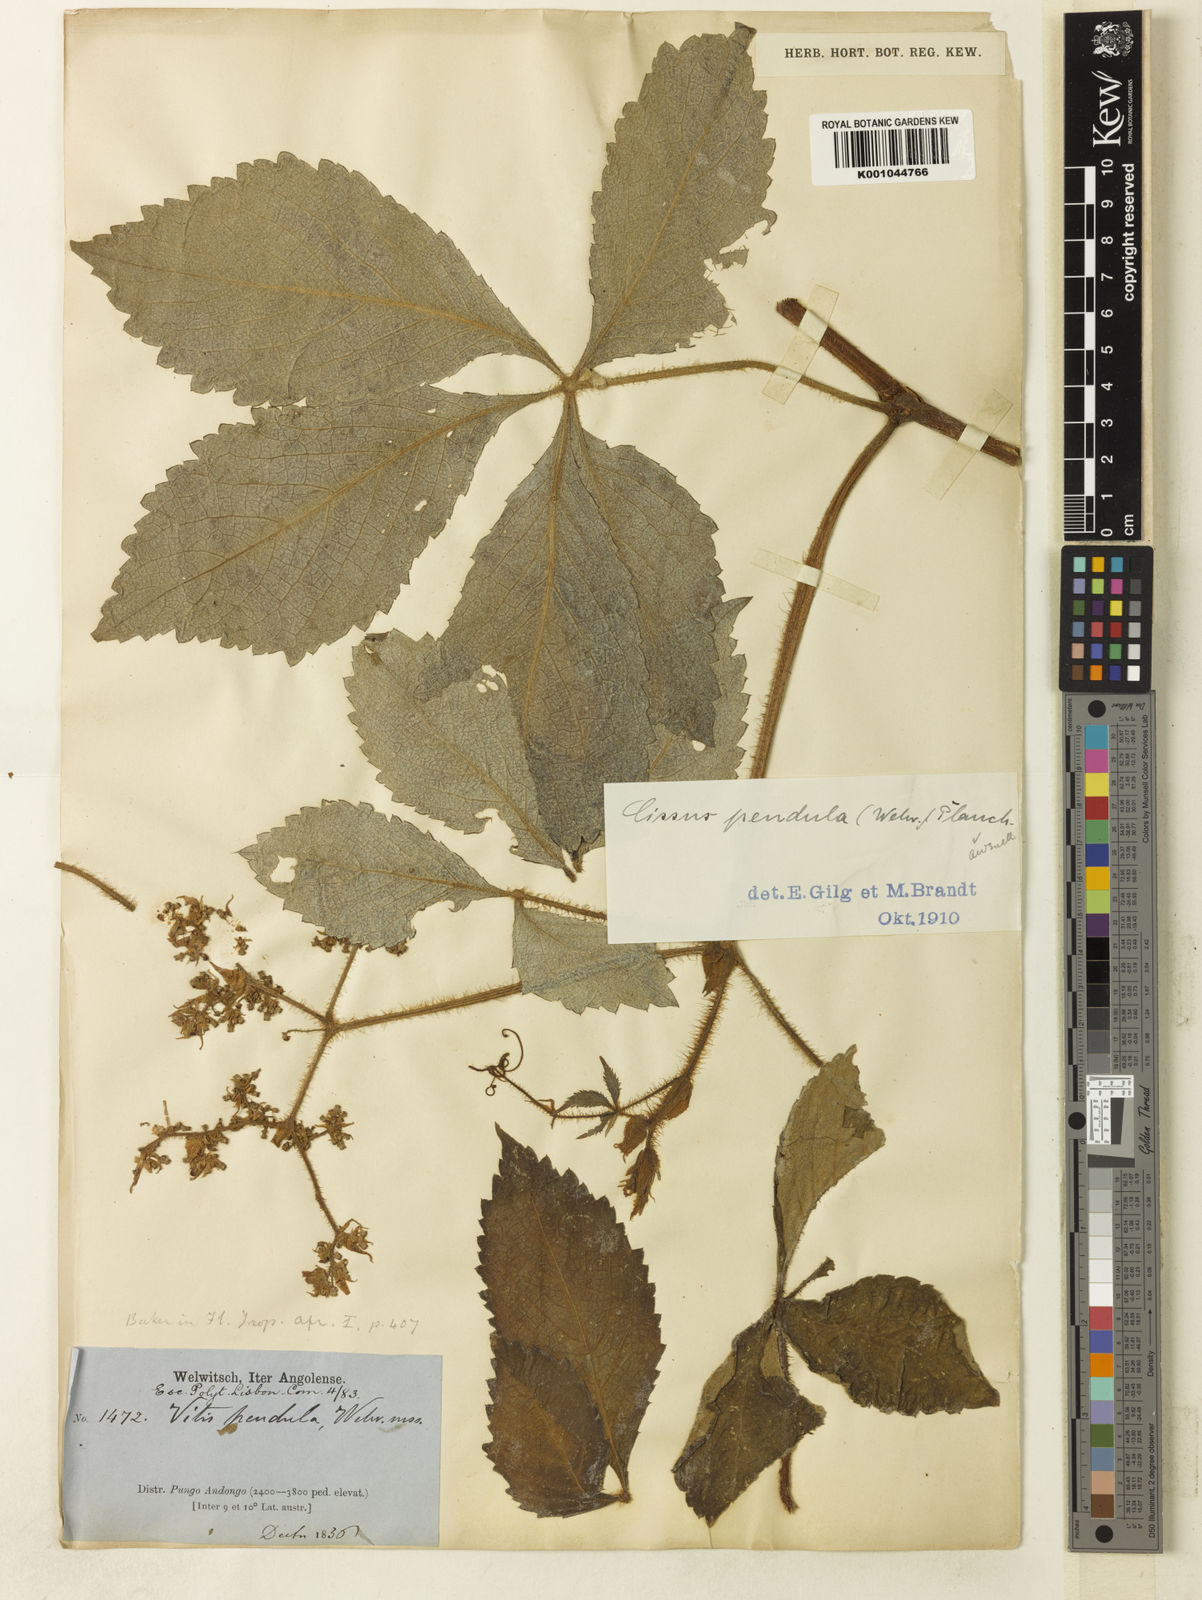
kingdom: Plantae
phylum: Tracheophyta
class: Magnoliopsida
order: Vitales
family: Vitaceae
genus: Cyphostemma
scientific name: Cyphostemma pendulum
